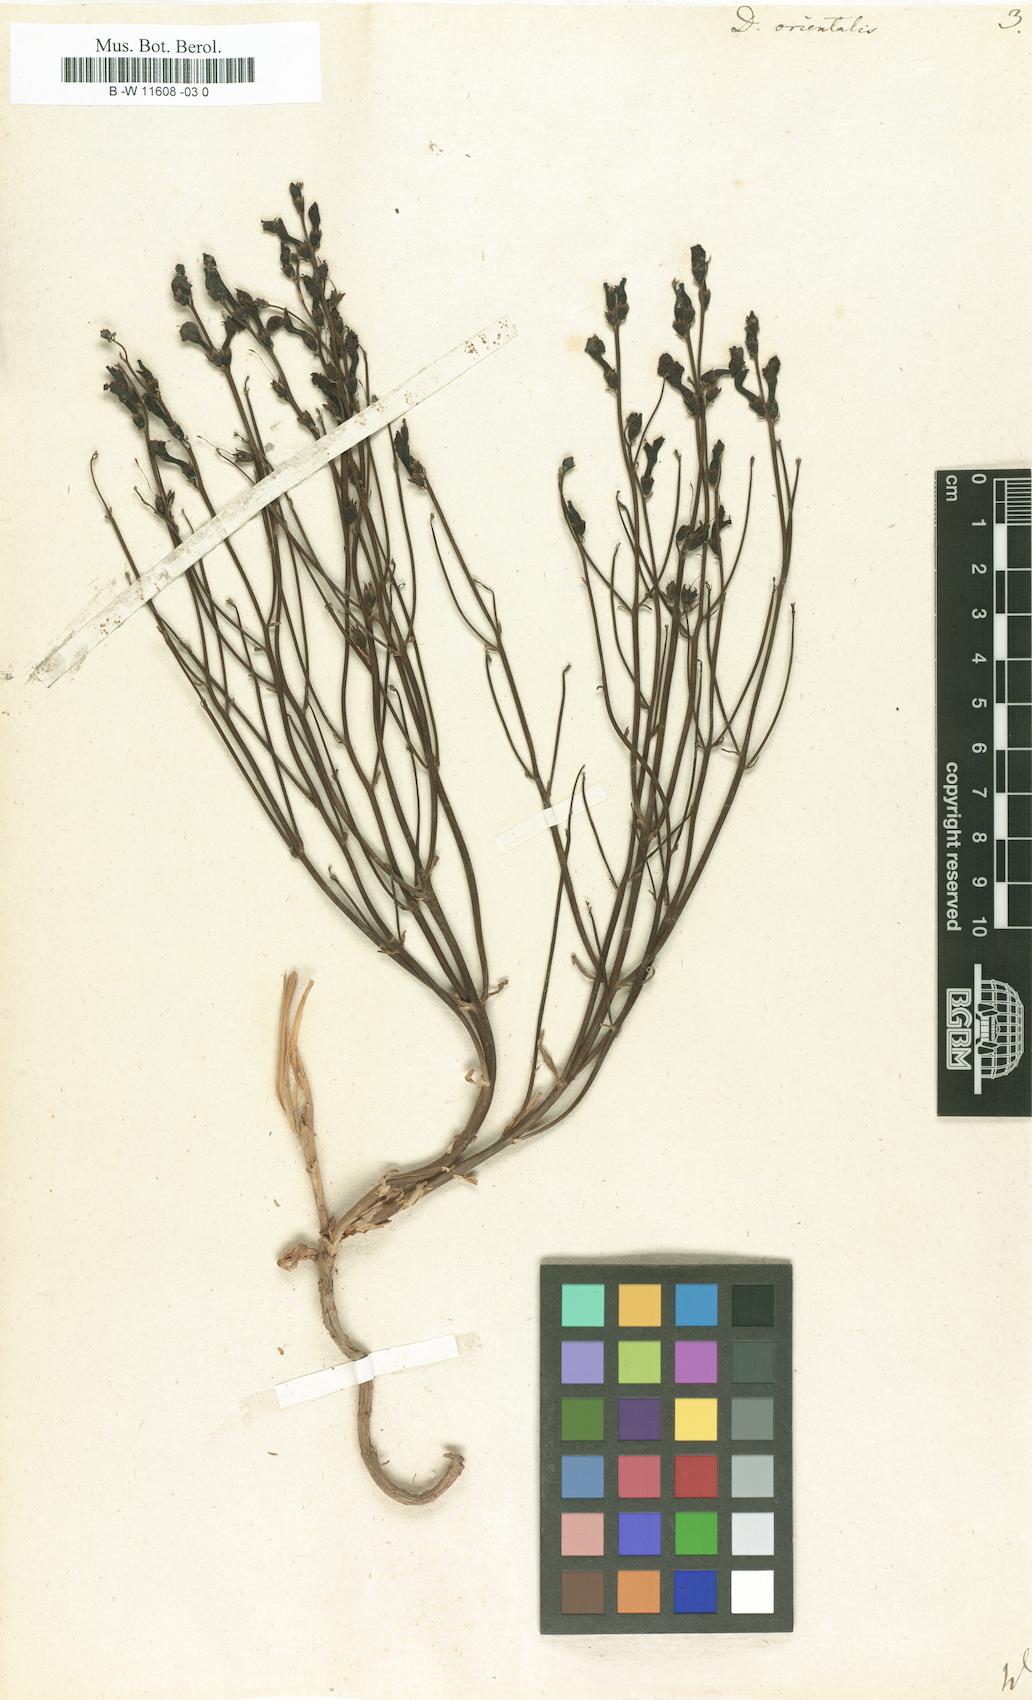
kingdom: Plantae
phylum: Tracheophyta
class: Magnoliopsida
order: Lamiales
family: Mazaceae
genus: Dodartia
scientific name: Dodartia orientalis
